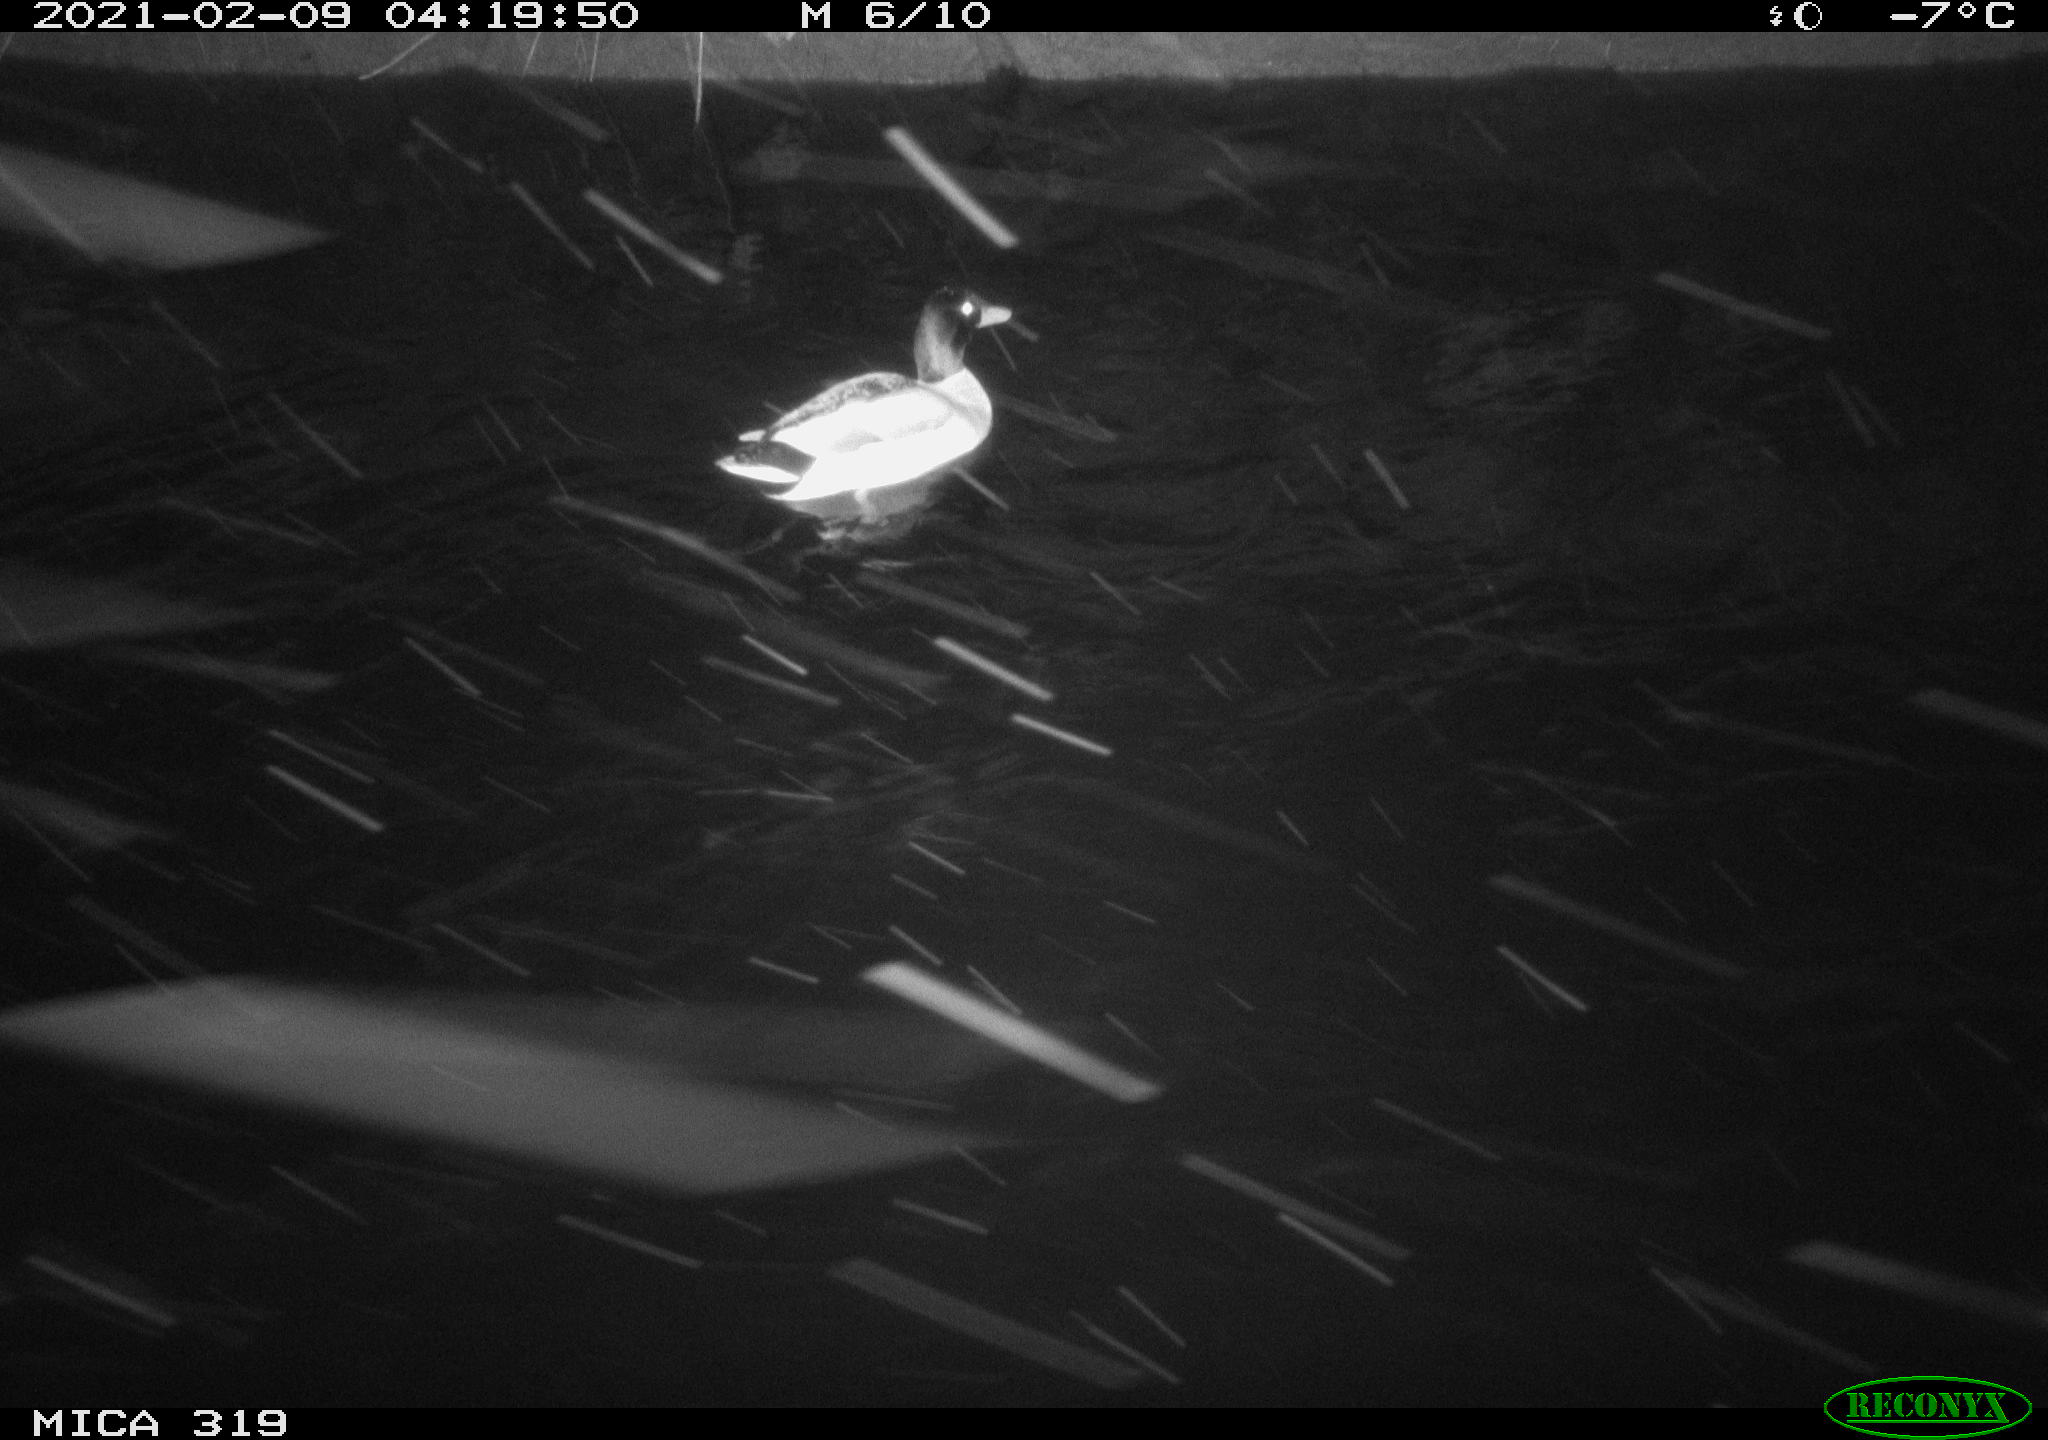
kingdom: Animalia
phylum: Chordata
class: Aves
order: Anseriformes
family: Anatidae
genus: Anas
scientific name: Anas platyrhynchos
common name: Mallard
